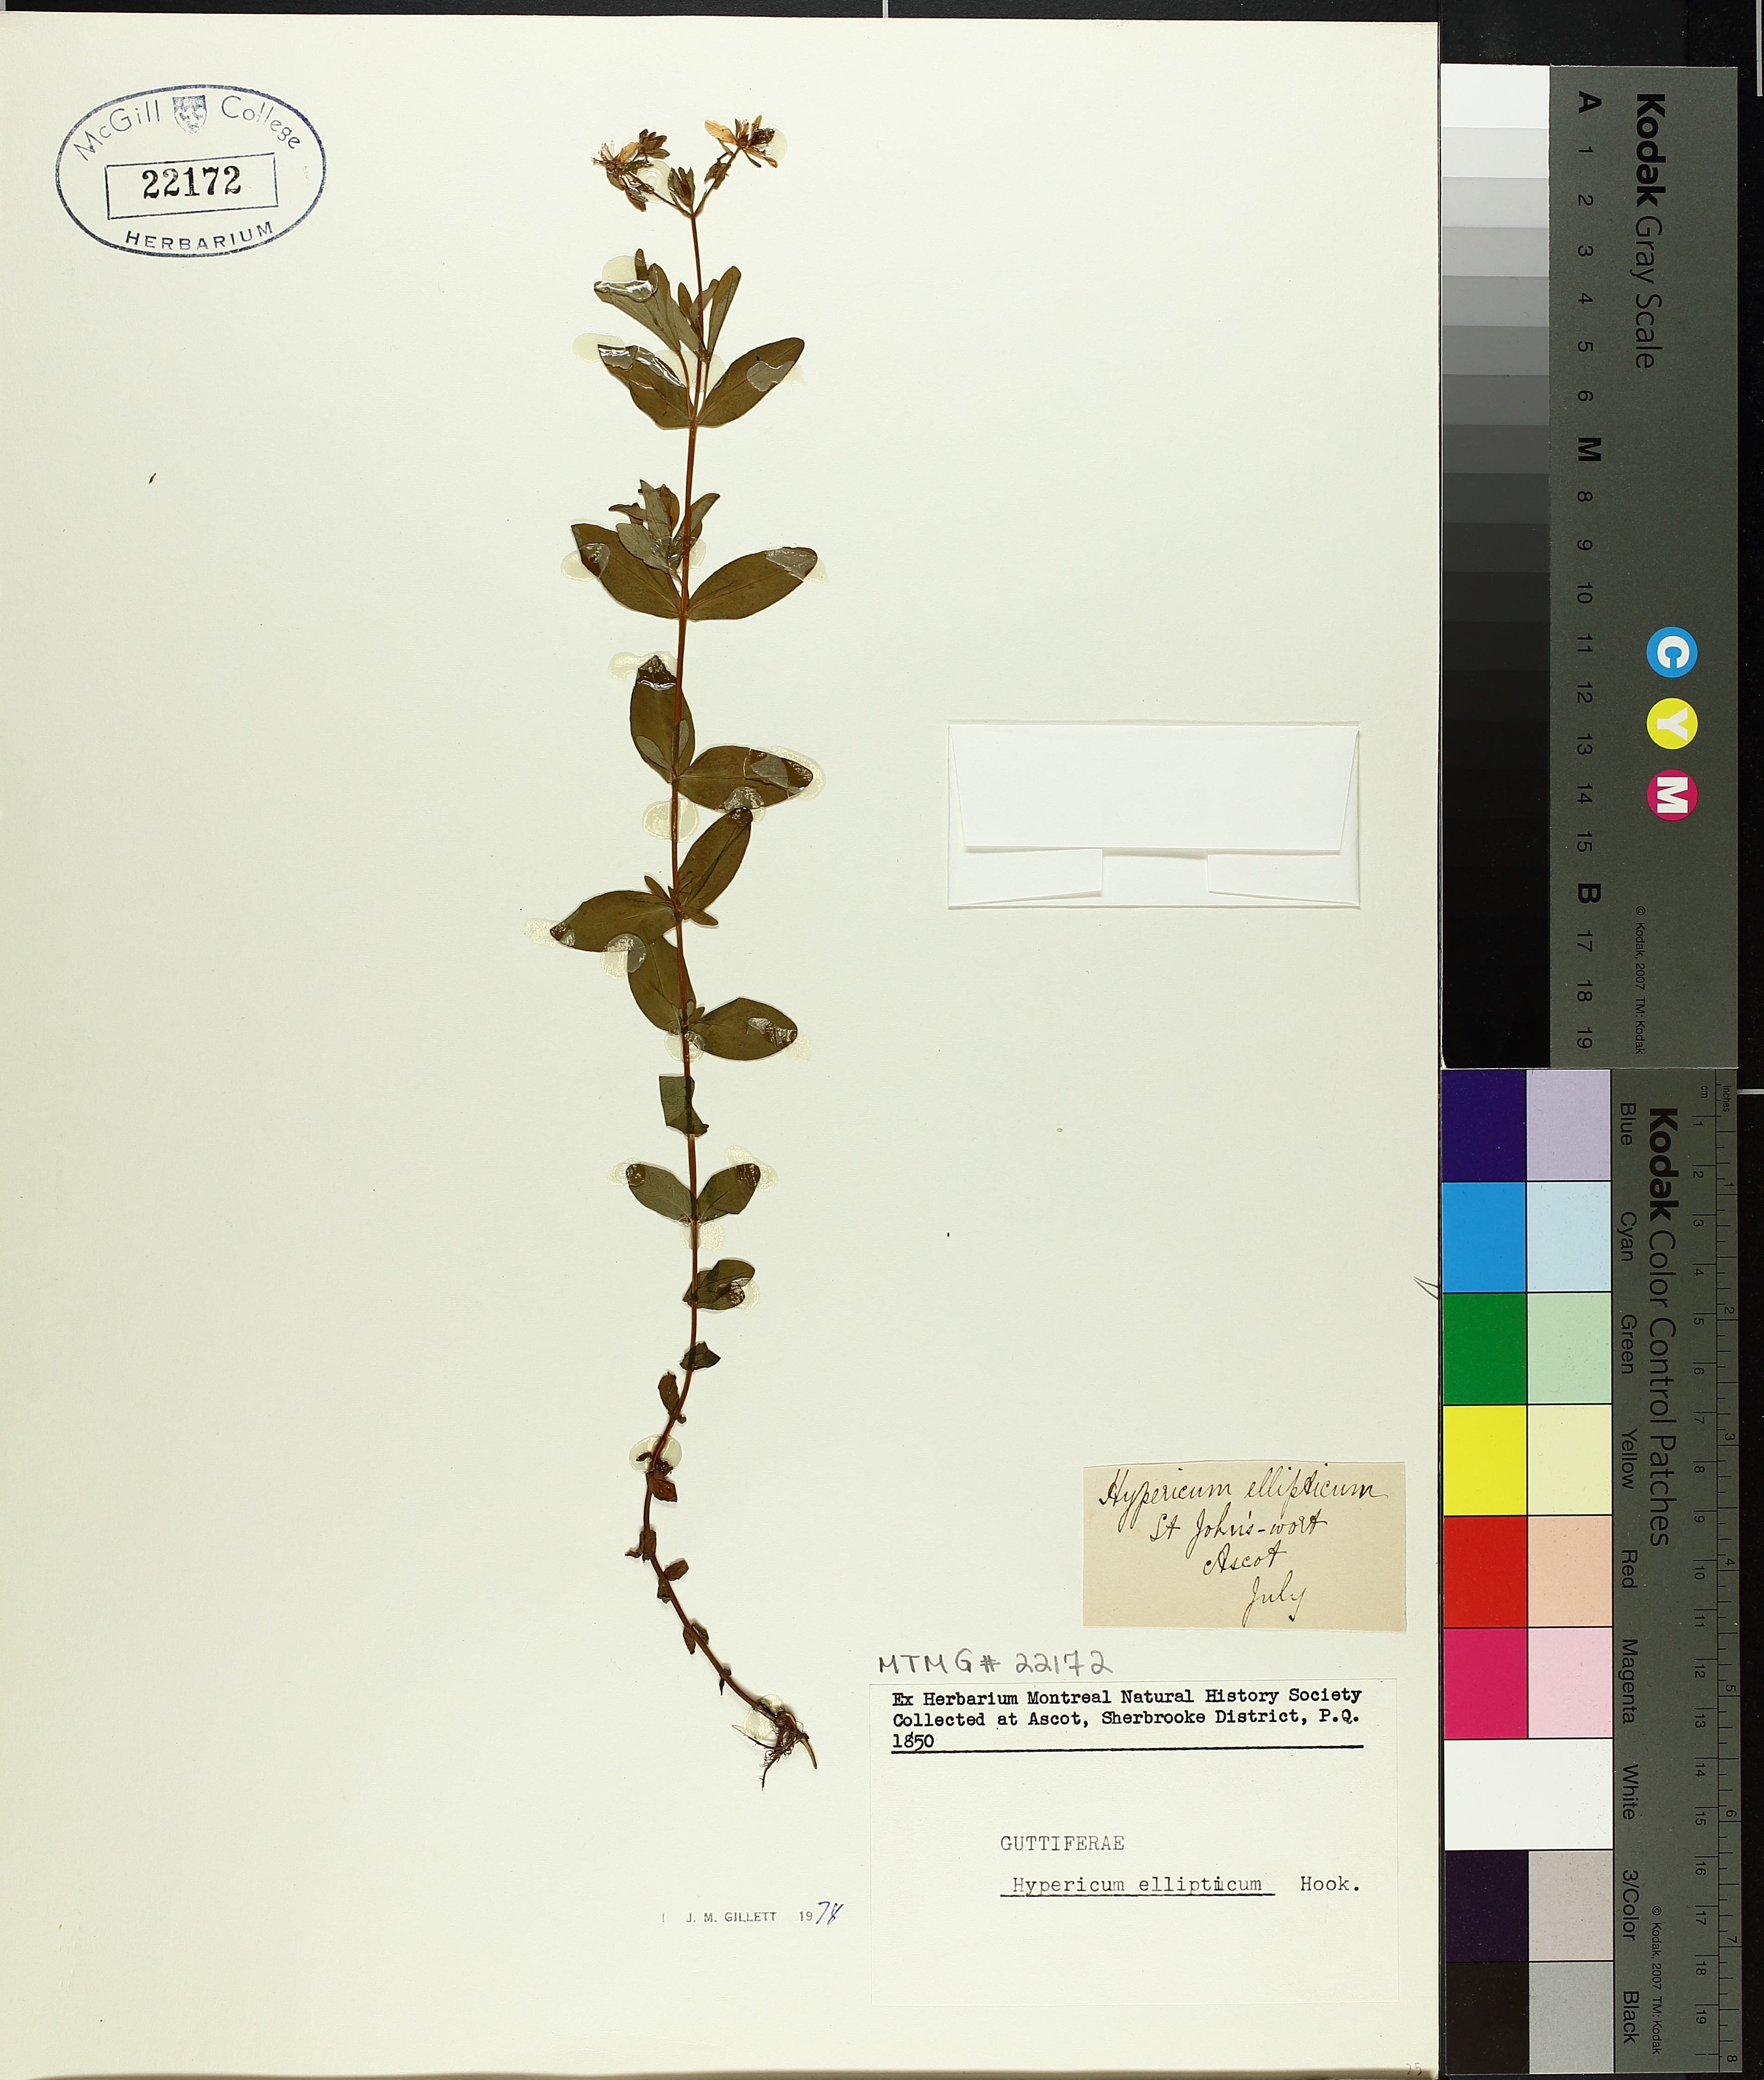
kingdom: Plantae
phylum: Tracheophyta
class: Magnoliopsida
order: Malpighiales
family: Hypericaceae
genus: Hypericum
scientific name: Hypericum ellipticum
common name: Elliptic st. john's-wort
